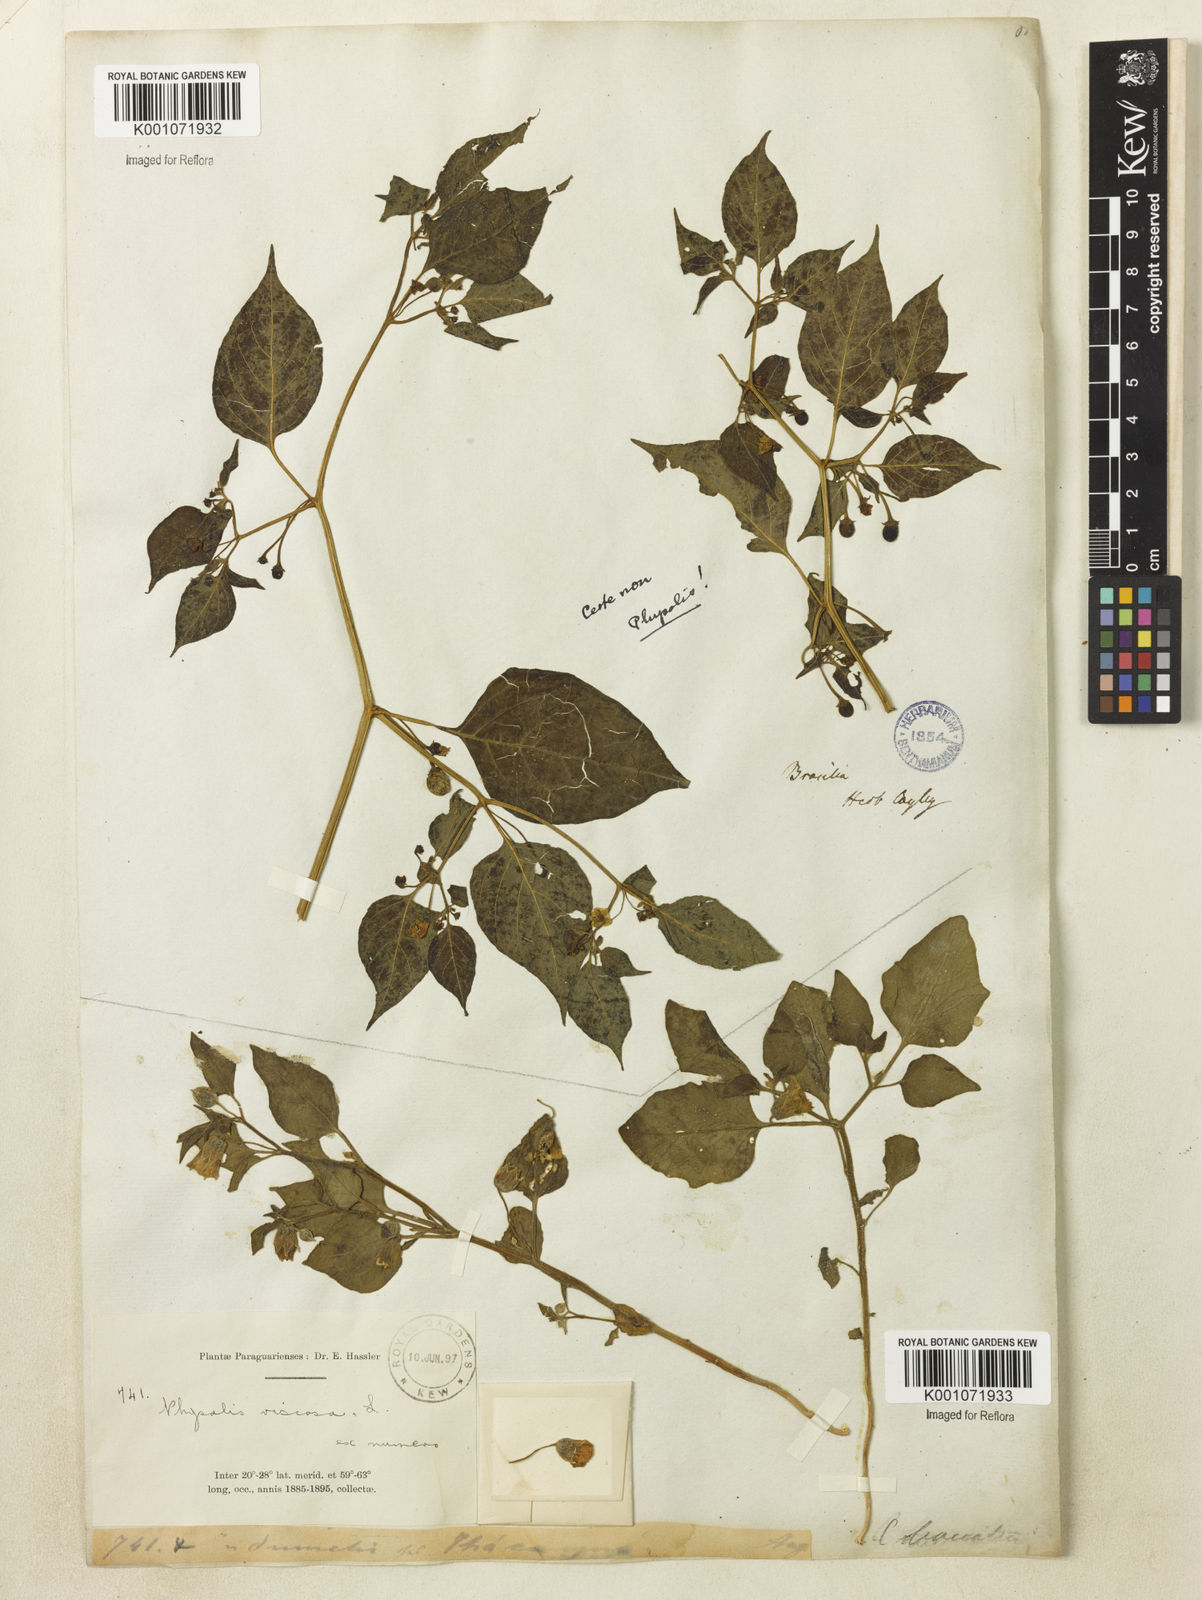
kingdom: Plantae
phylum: Tracheophyta
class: Magnoliopsida
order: Solanales
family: Solanaceae
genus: Physalis
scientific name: Physalis viscosa
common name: Stellate ground-cherry
